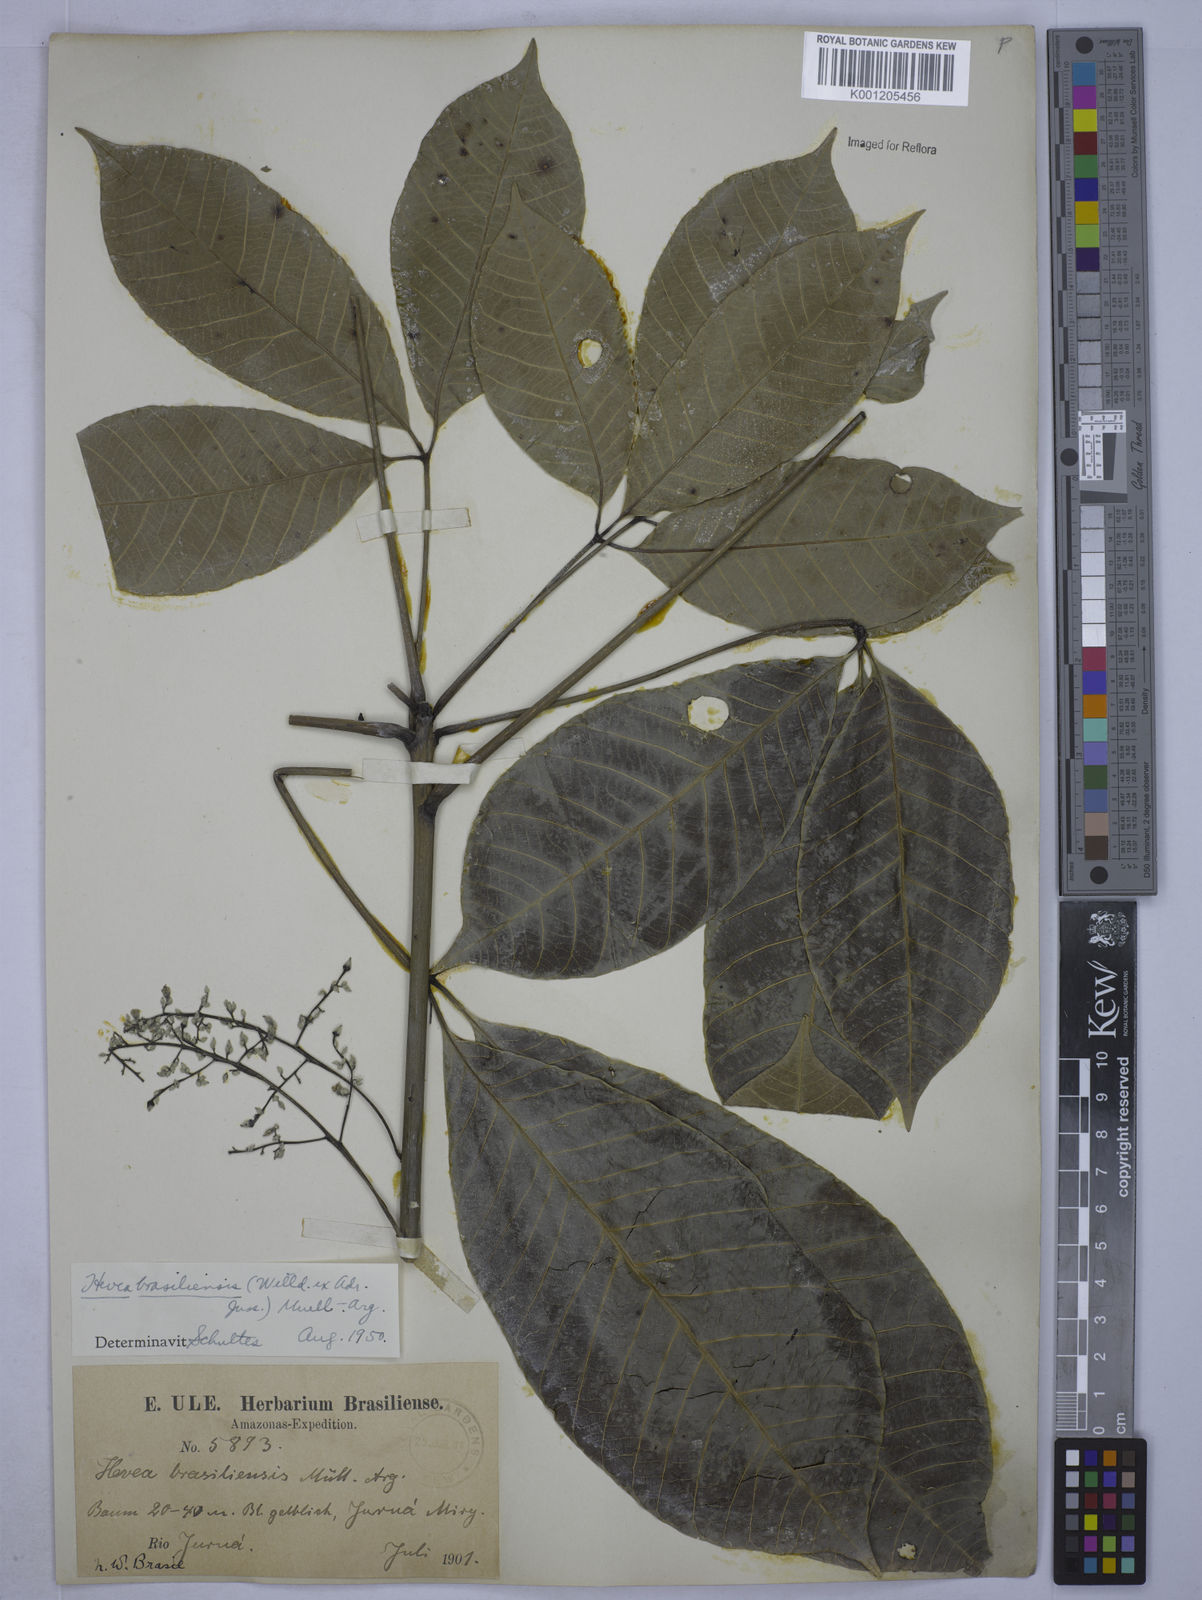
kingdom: Plantae
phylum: Tracheophyta
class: Magnoliopsida
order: Malpighiales
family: Euphorbiaceae
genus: Hevea
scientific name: Hevea brasiliensis
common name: Natural rubber
